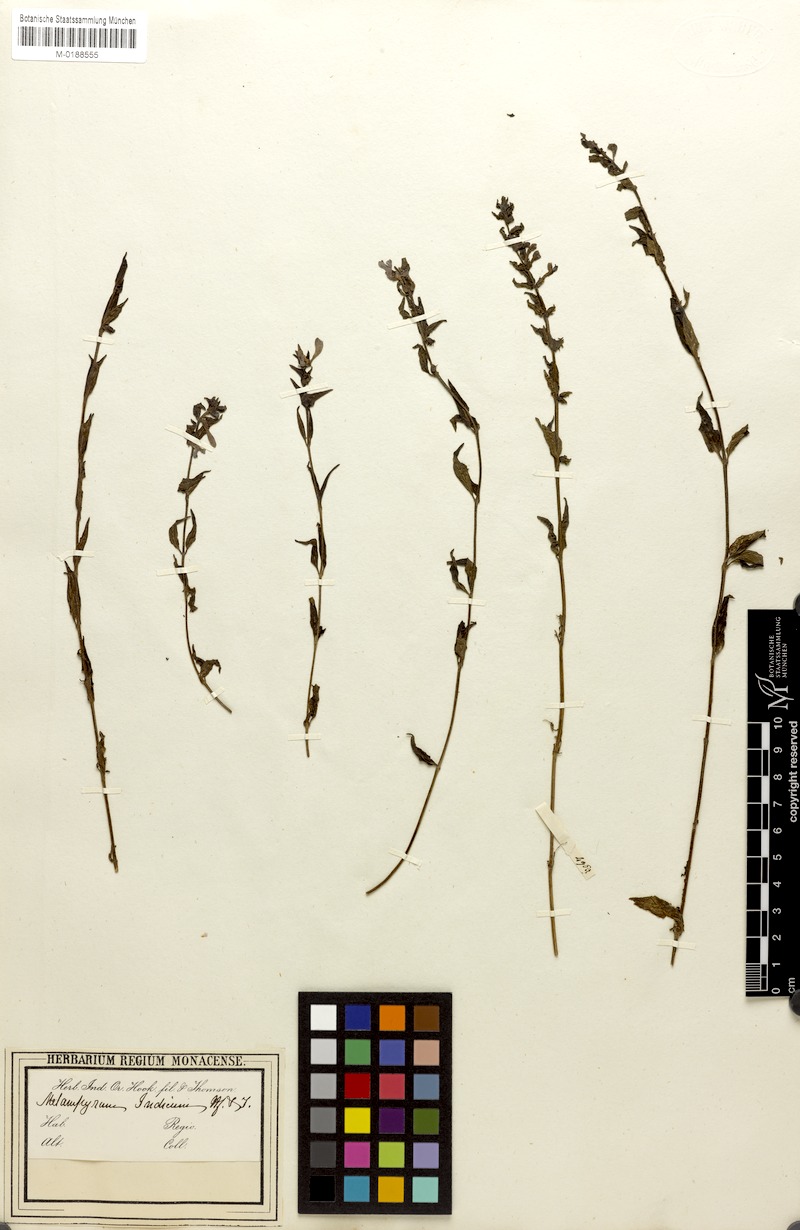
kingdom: Plantae
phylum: Tracheophyta
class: Magnoliopsida
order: Lamiales
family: Orobanchaceae
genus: Melampyrum
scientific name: Melampyrum indicum
